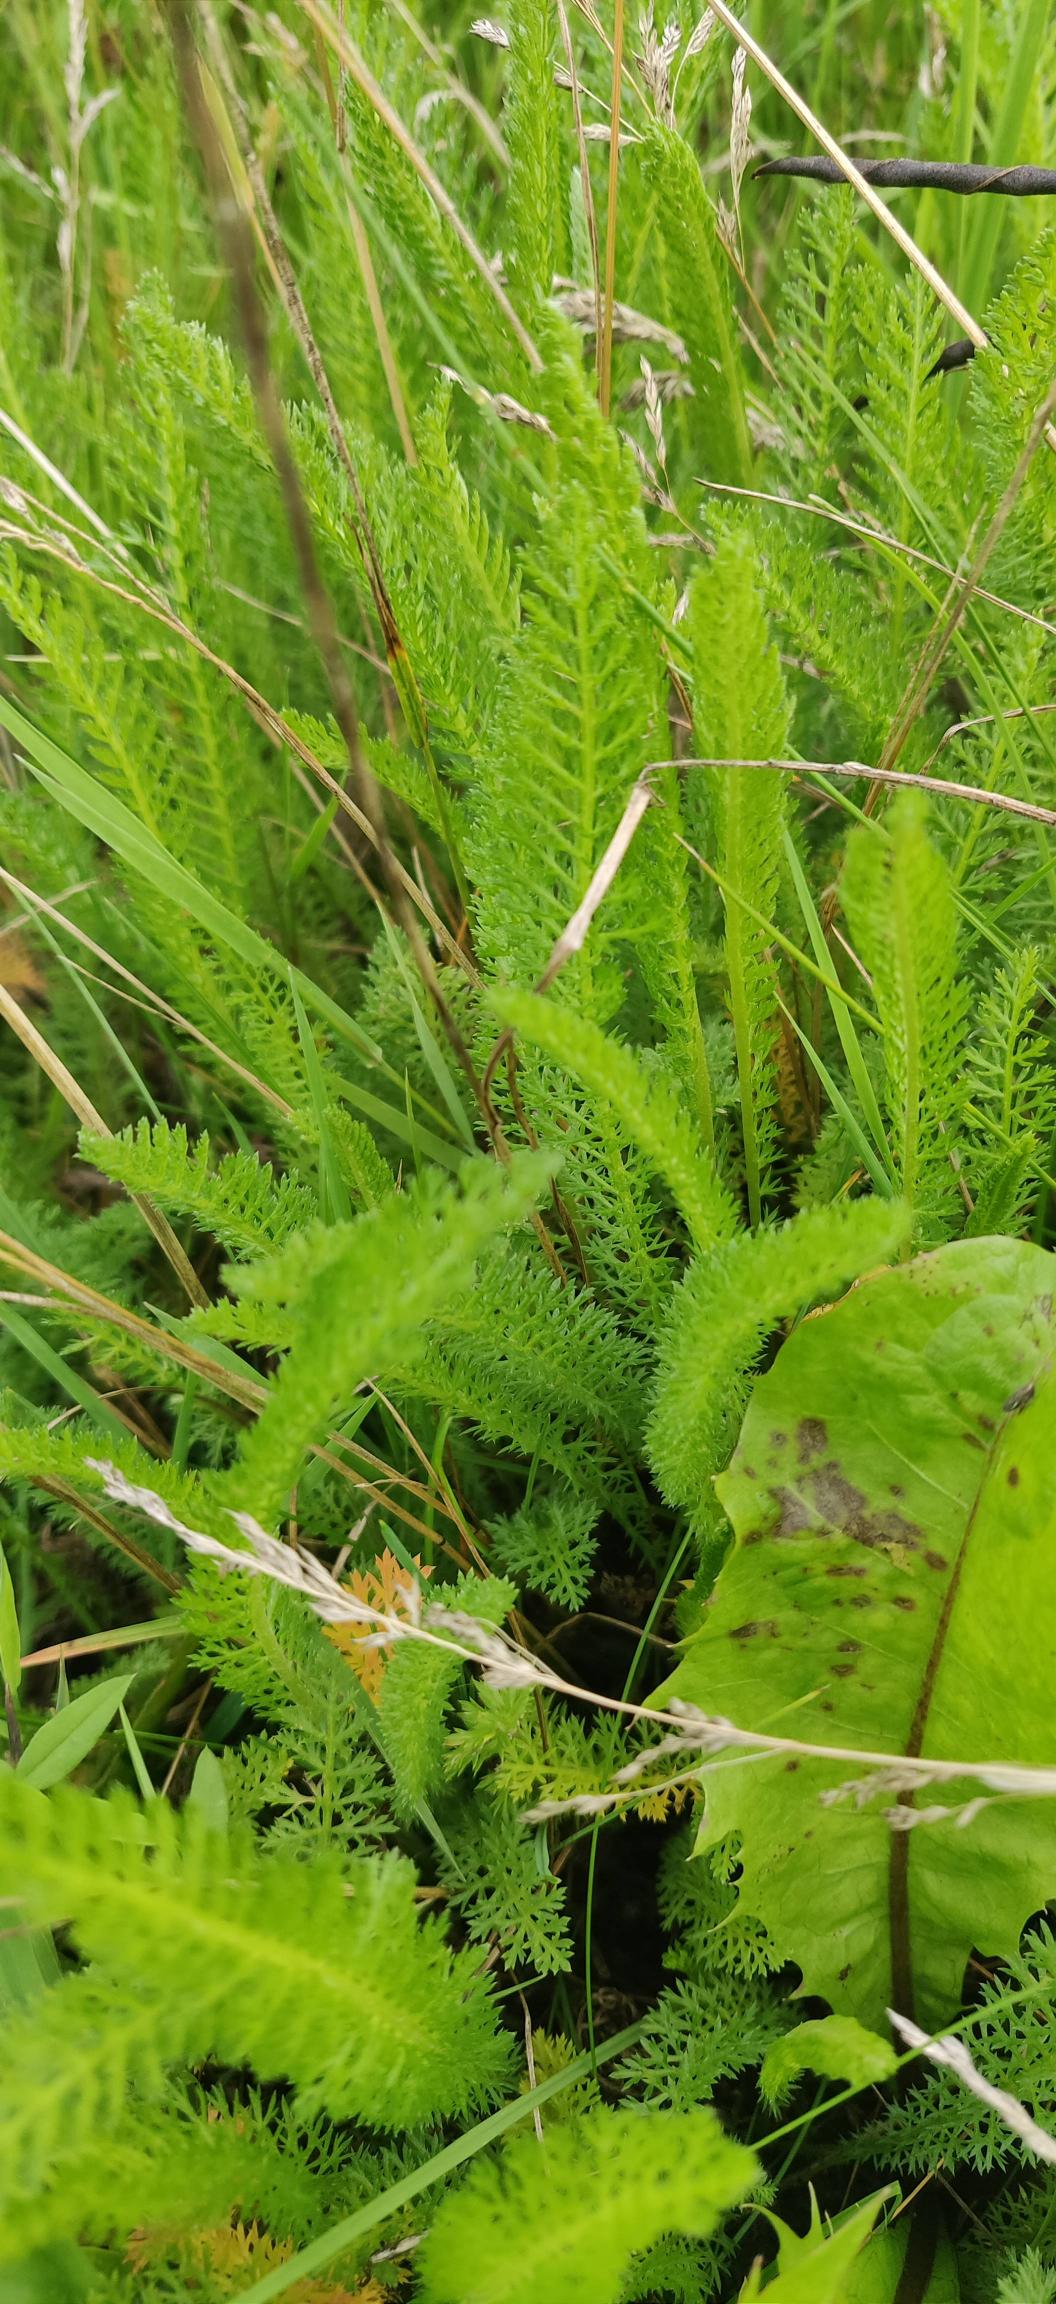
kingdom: Plantae
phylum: Tracheophyta
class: Magnoliopsida
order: Asterales
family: Asteraceae
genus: Achillea
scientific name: Achillea millefolium
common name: Almindelig røllike
